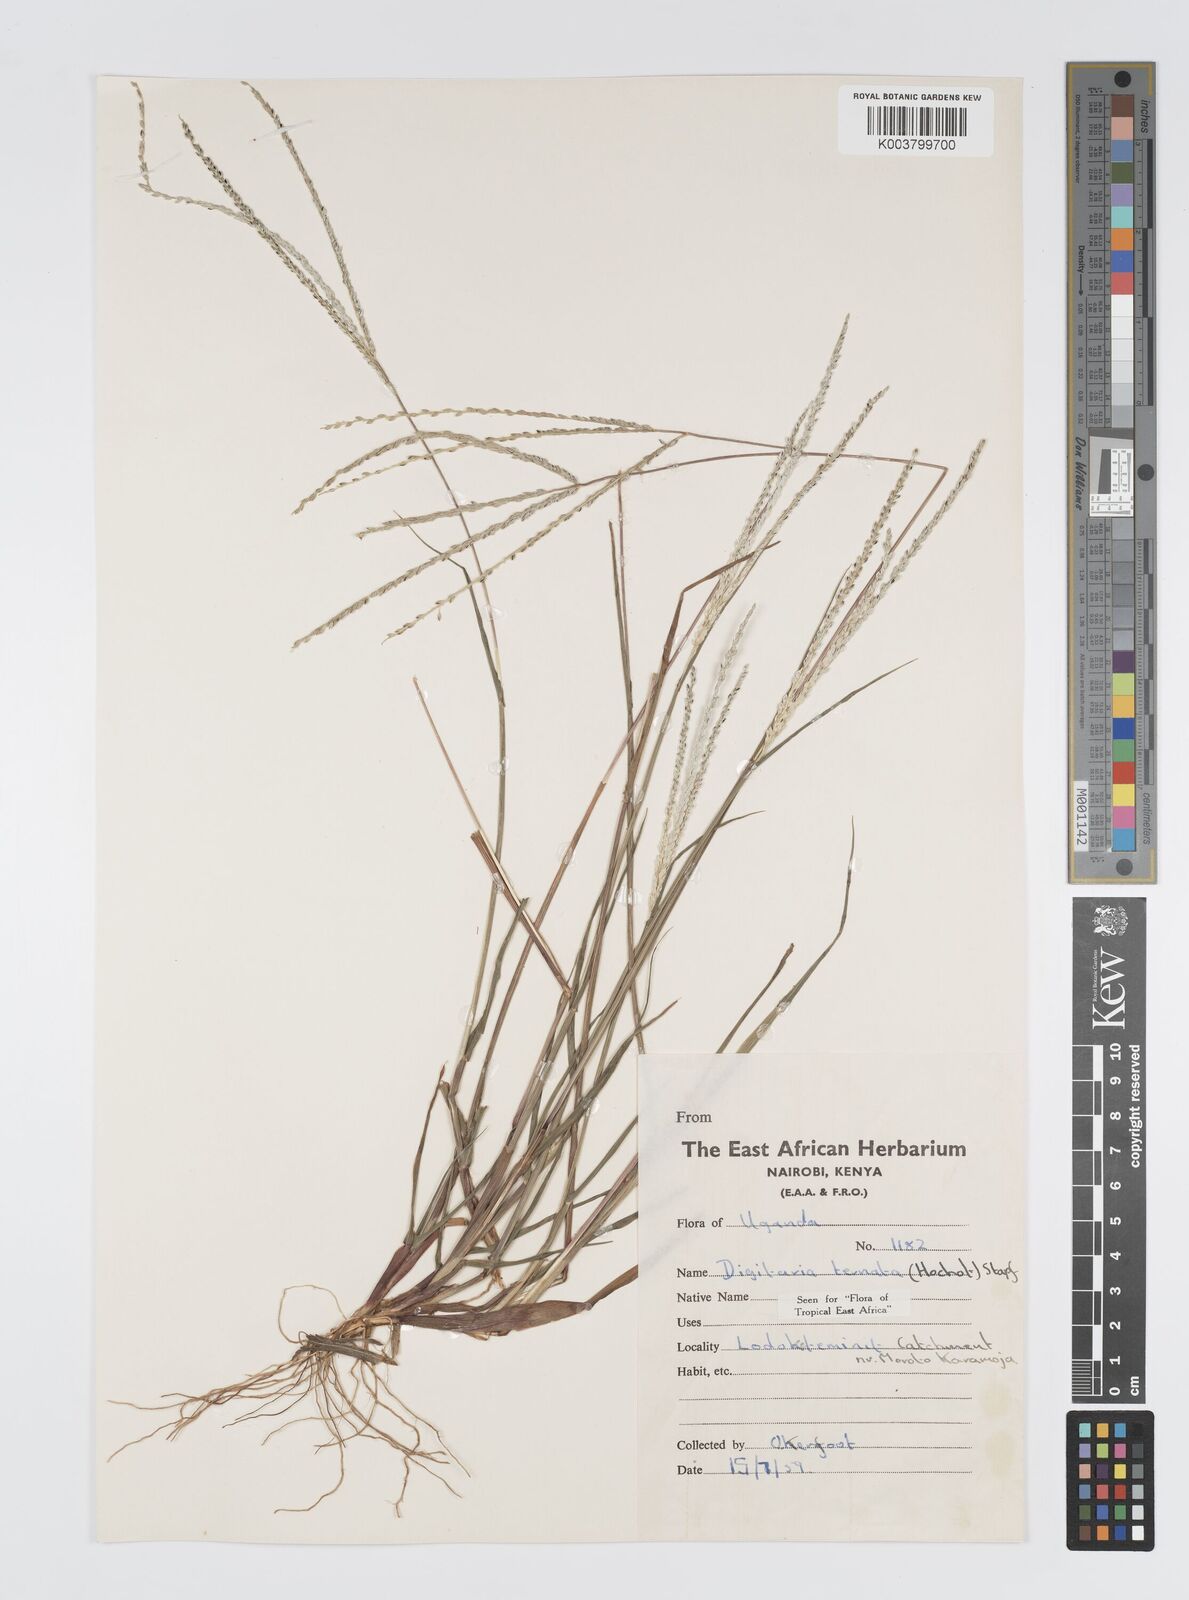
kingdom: Plantae
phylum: Tracheophyta
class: Liliopsida
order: Poales
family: Poaceae
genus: Digitaria
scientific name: Digitaria ternata
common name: Blackseed crabgrass
